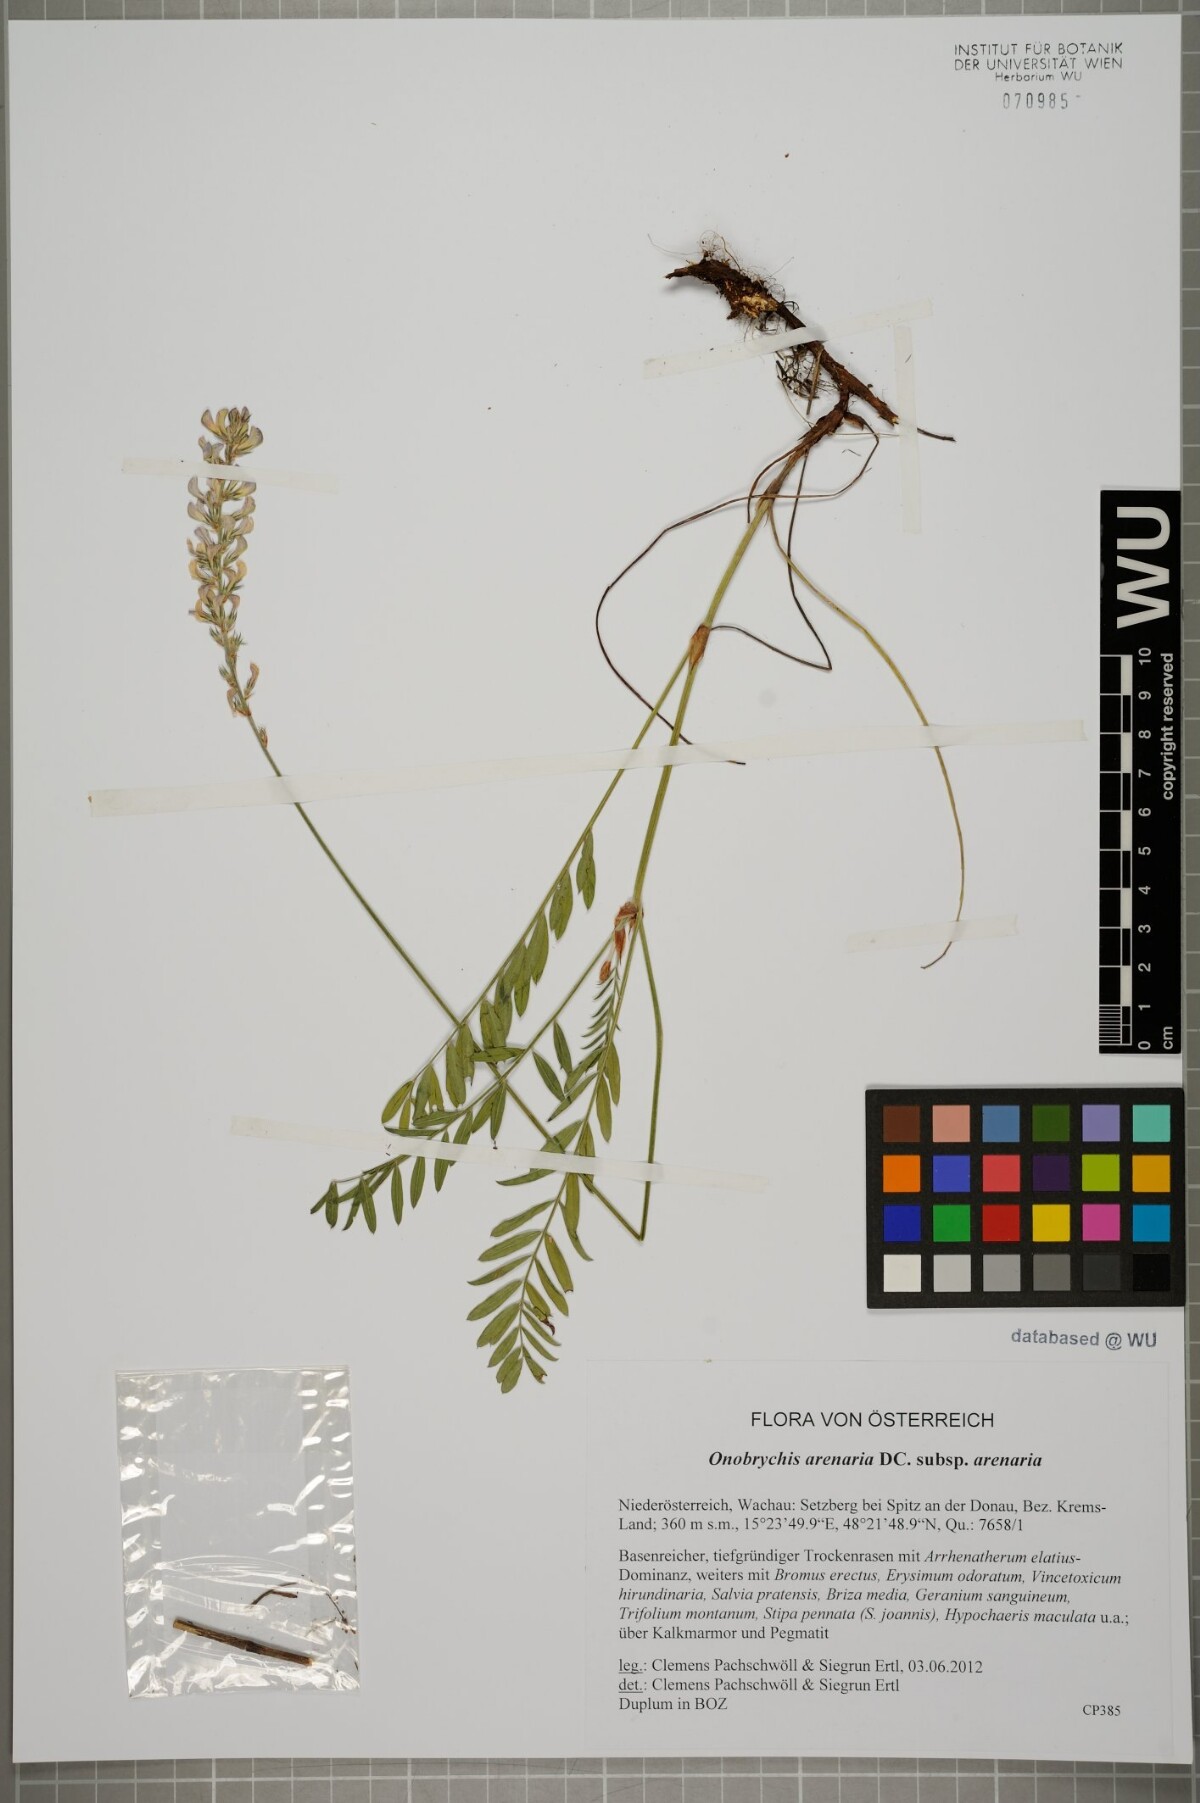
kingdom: Plantae
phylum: Tracheophyta
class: Magnoliopsida
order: Fabales
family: Fabaceae
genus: Onobrychis
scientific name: Onobrychis arenaria
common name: Sand esparcet
